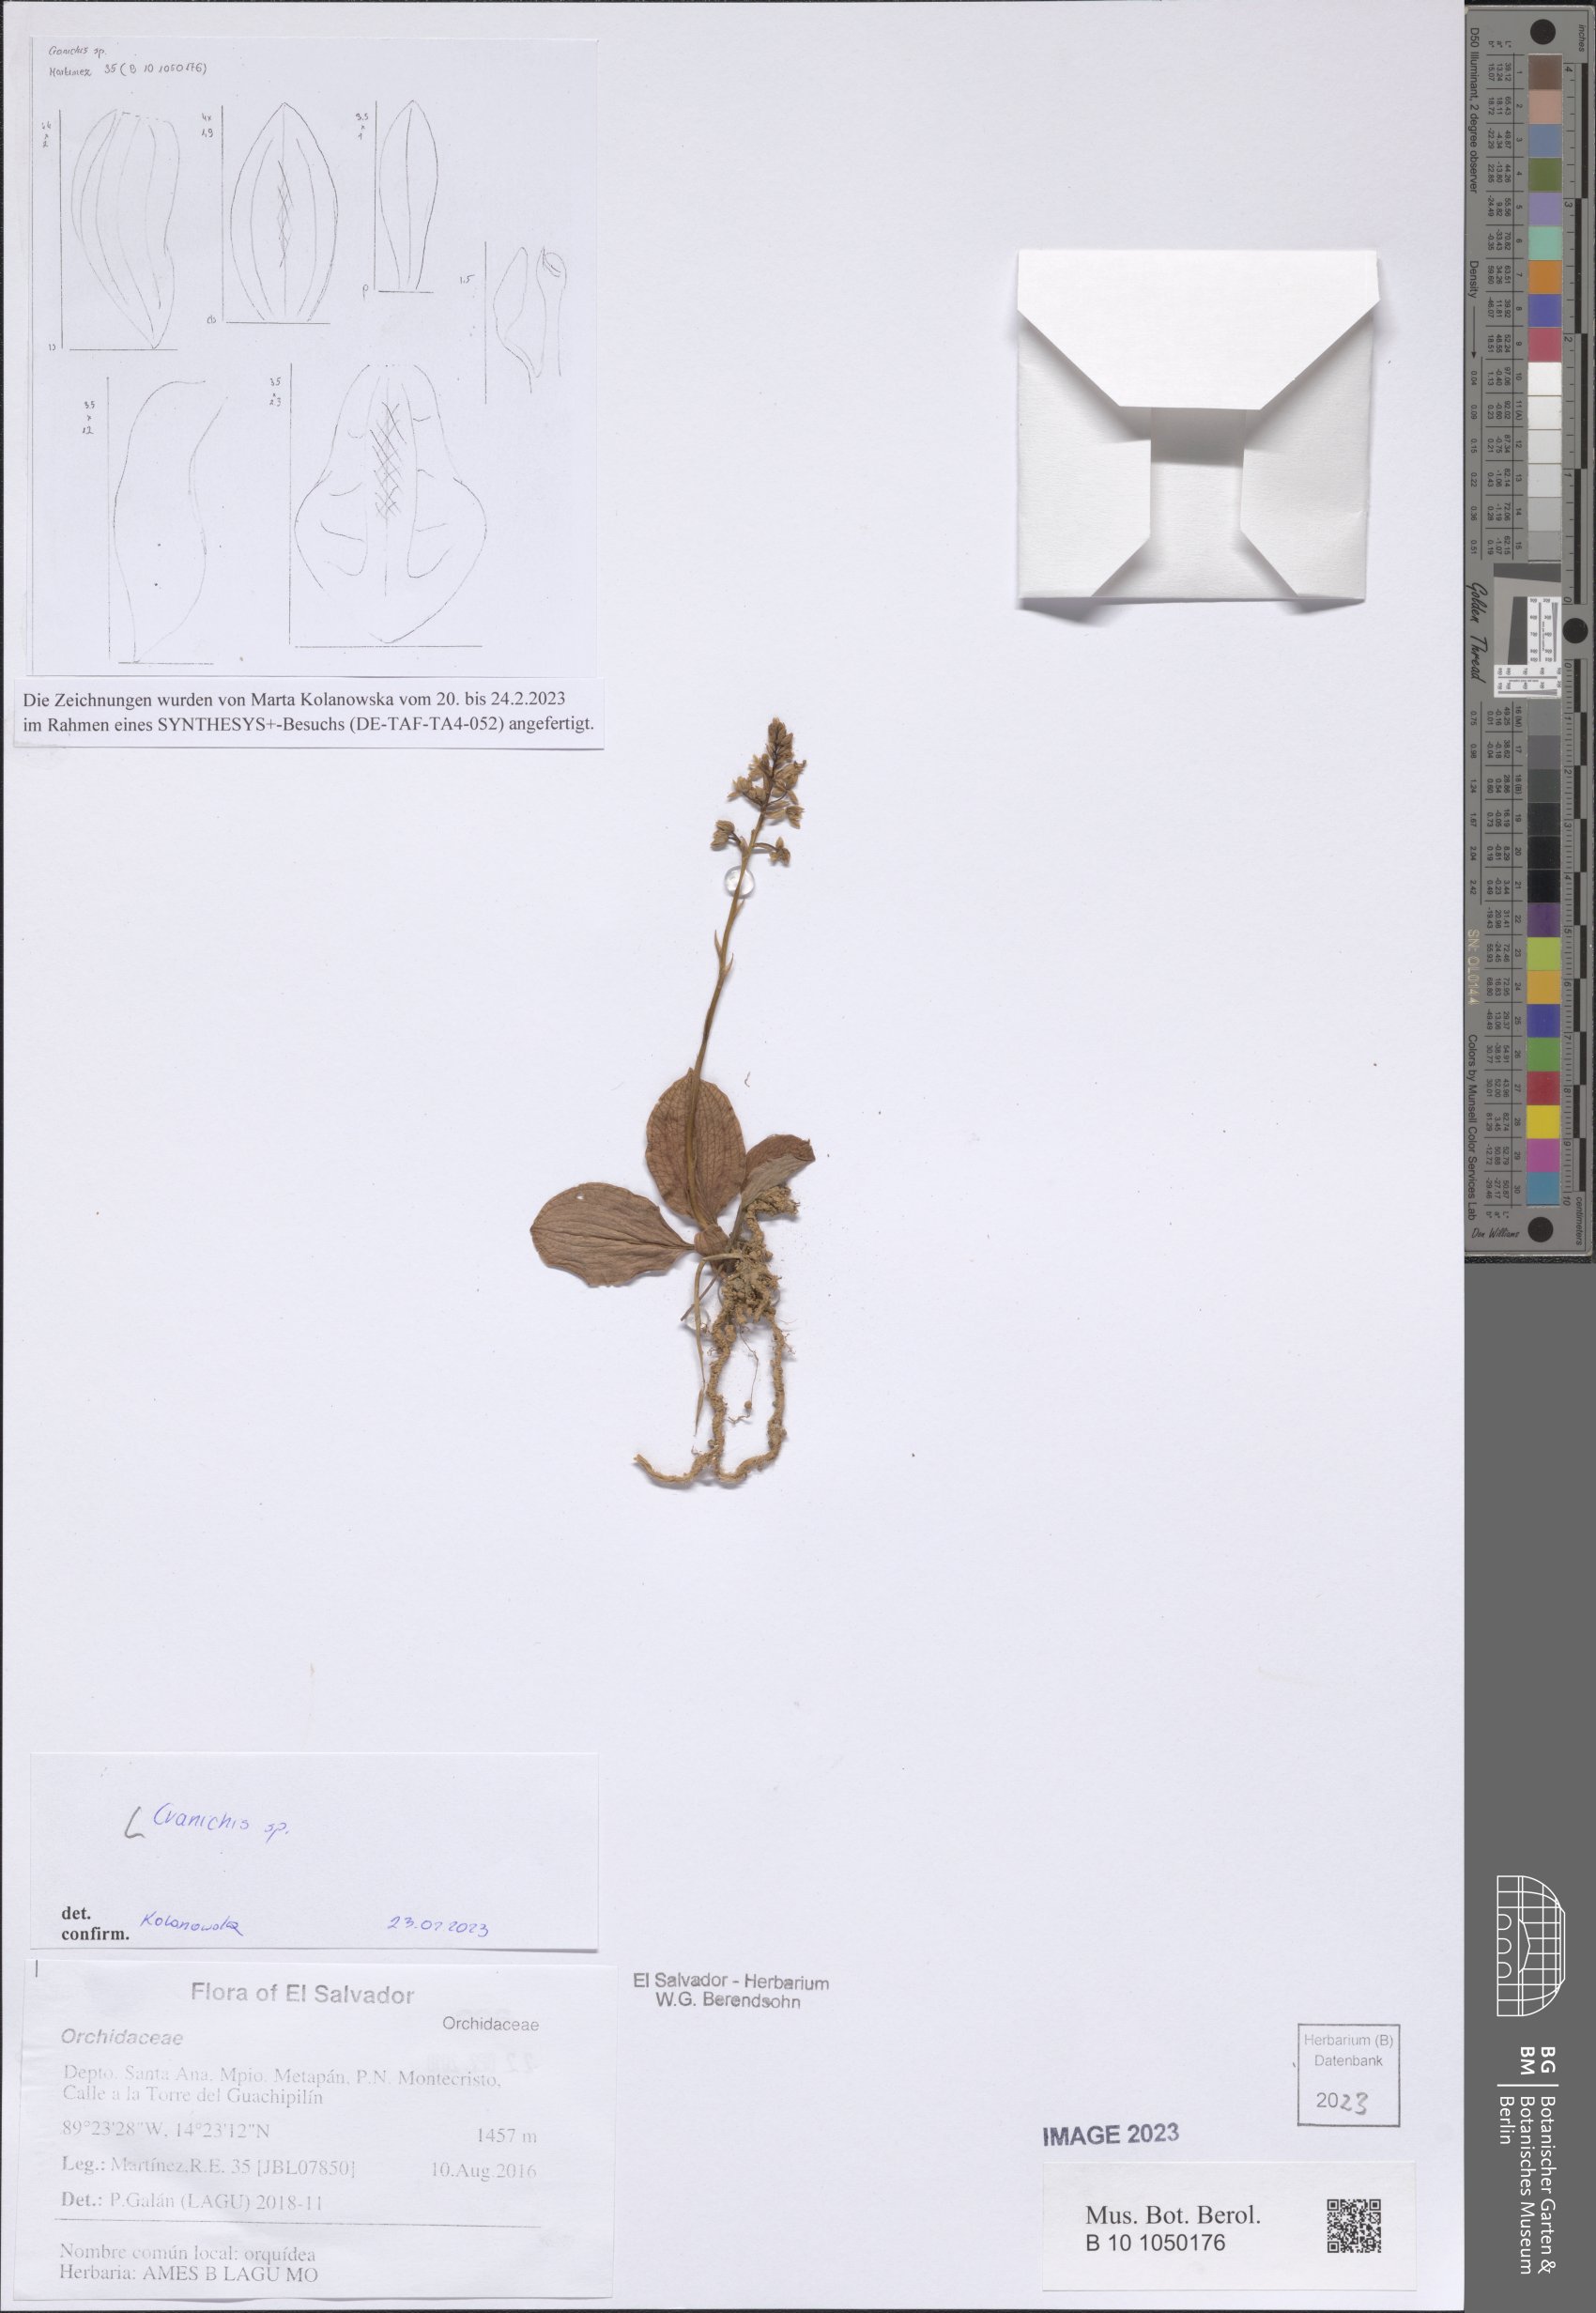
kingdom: Plantae
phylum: Tracheophyta
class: Liliopsida
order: Asparagales
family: Orchidaceae
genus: Cranichis
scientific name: Cranichis
